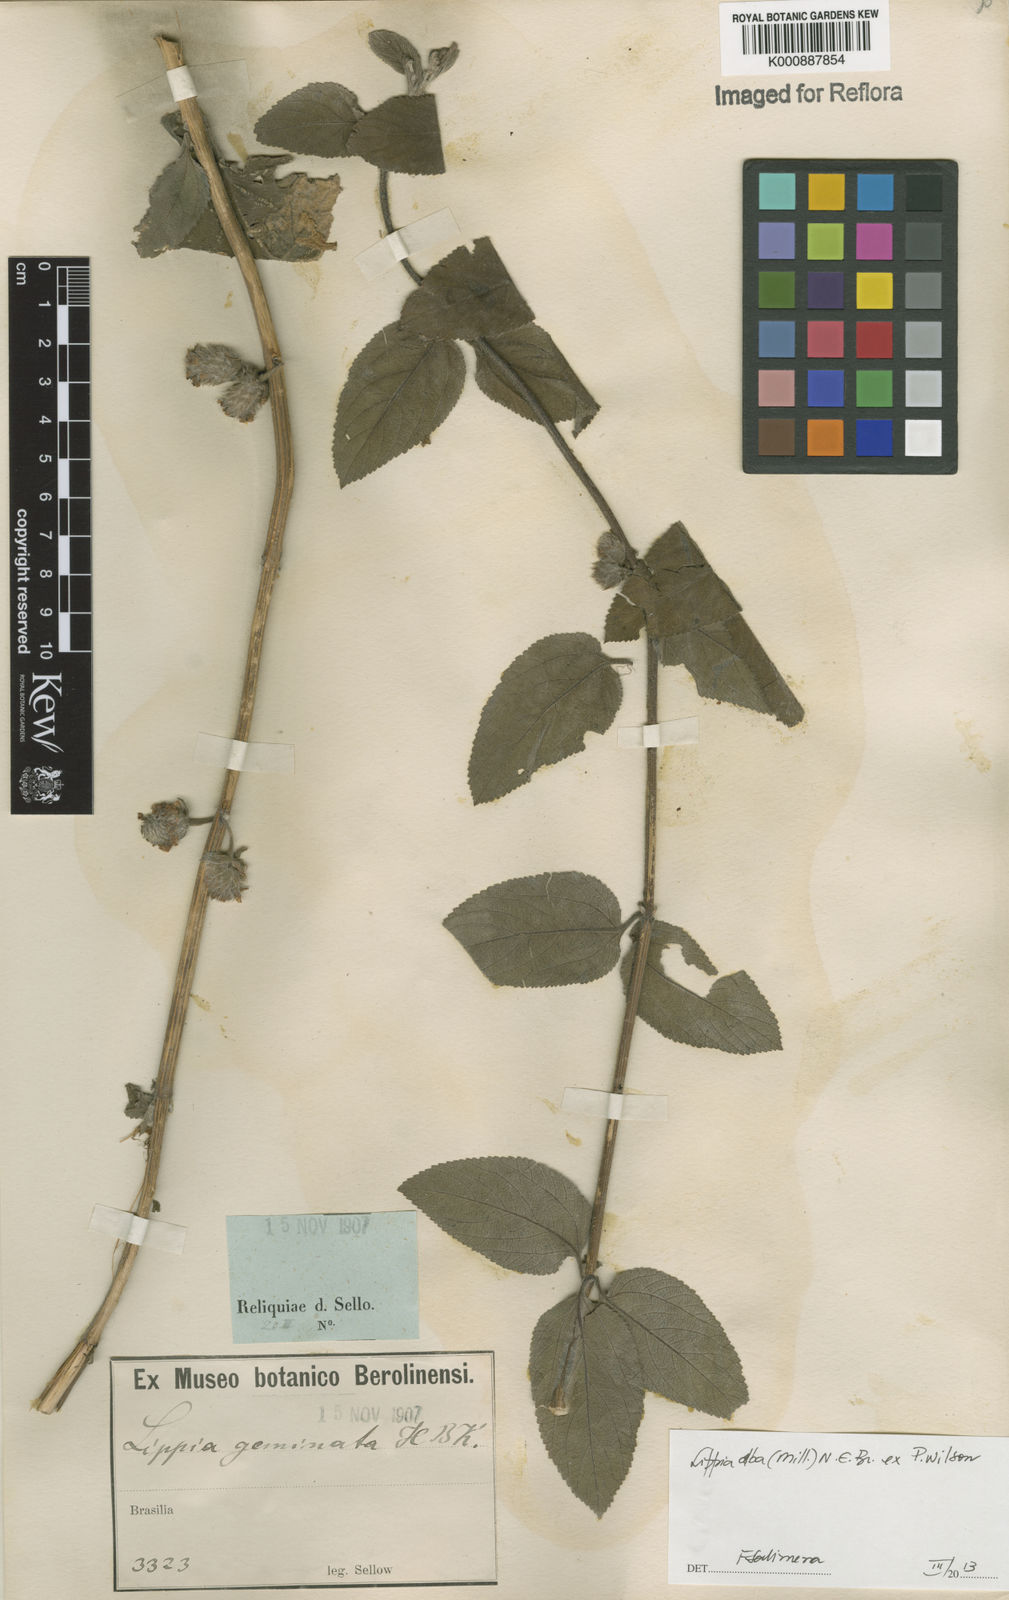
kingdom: Plantae
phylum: Tracheophyta
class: Magnoliopsida
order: Lamiales
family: Verbenaceae
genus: Lippia
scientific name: Lippia
